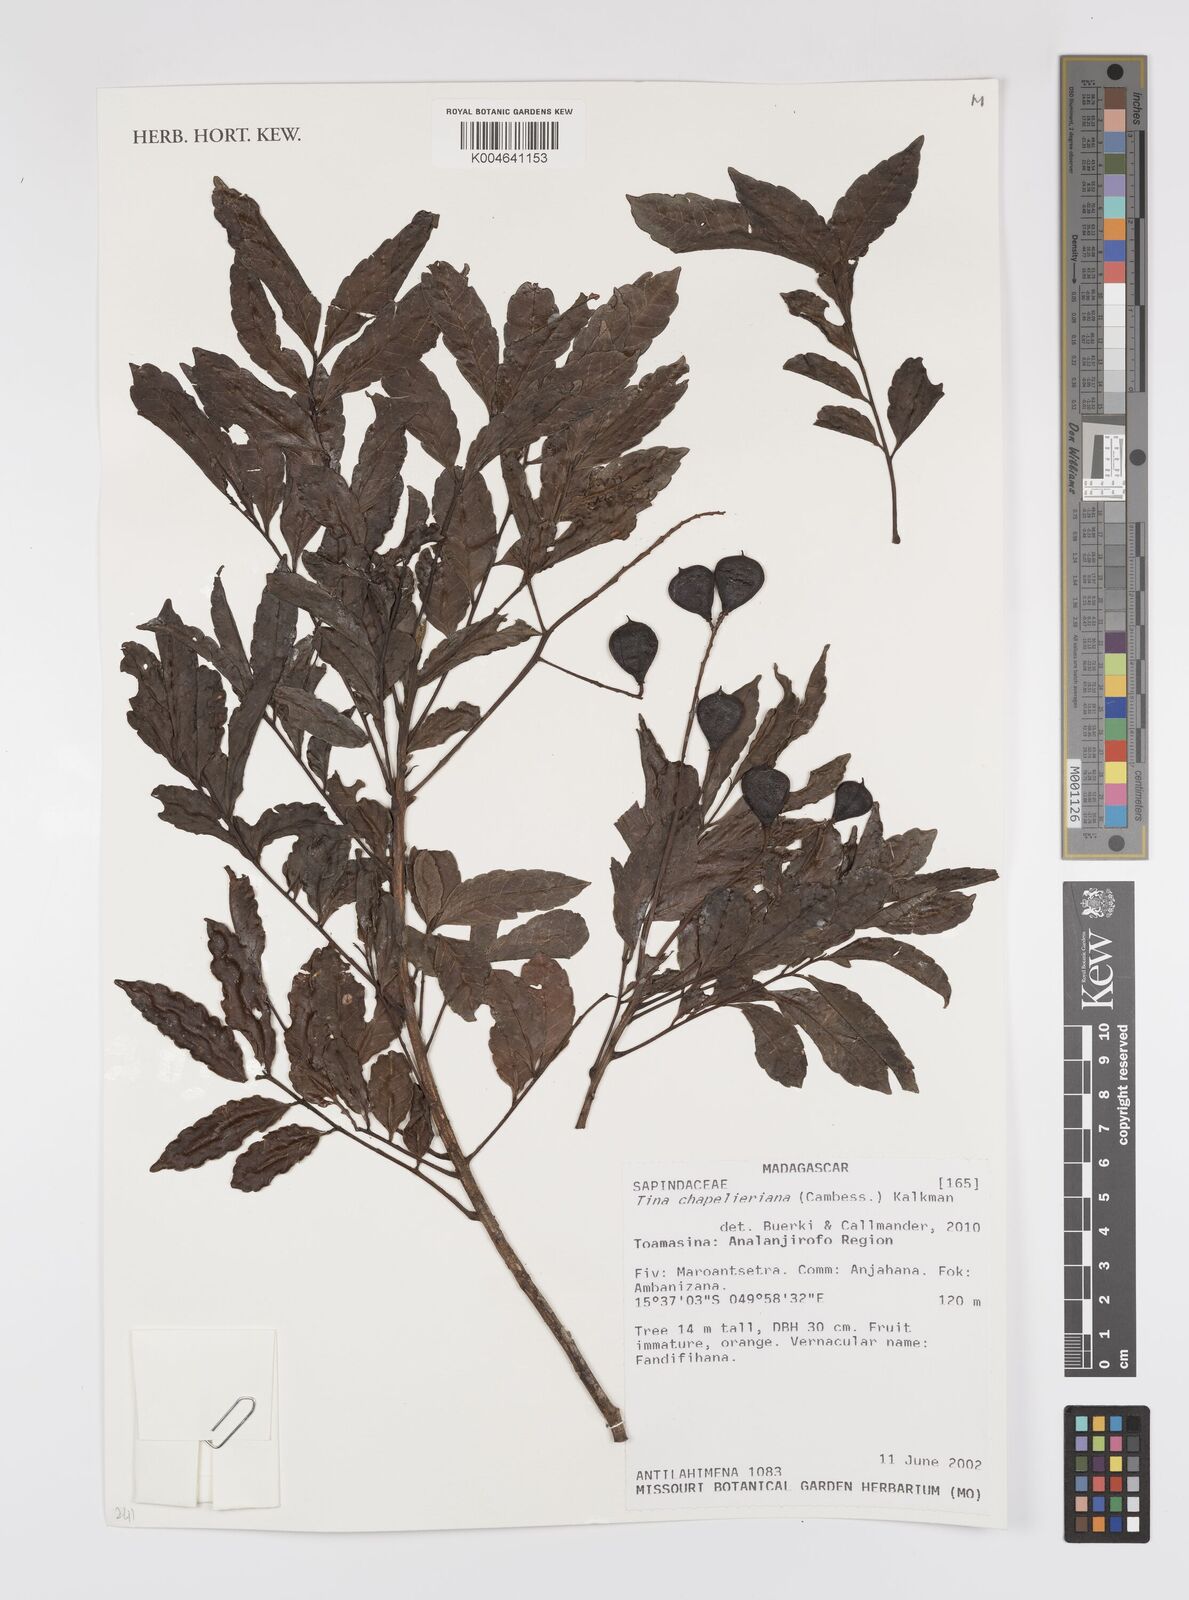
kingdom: Plantae
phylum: Tracheophyta
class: Magnoliopsida
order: Sapindales
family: Sapindaceae
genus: Tina
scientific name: Tina chapelieriana
